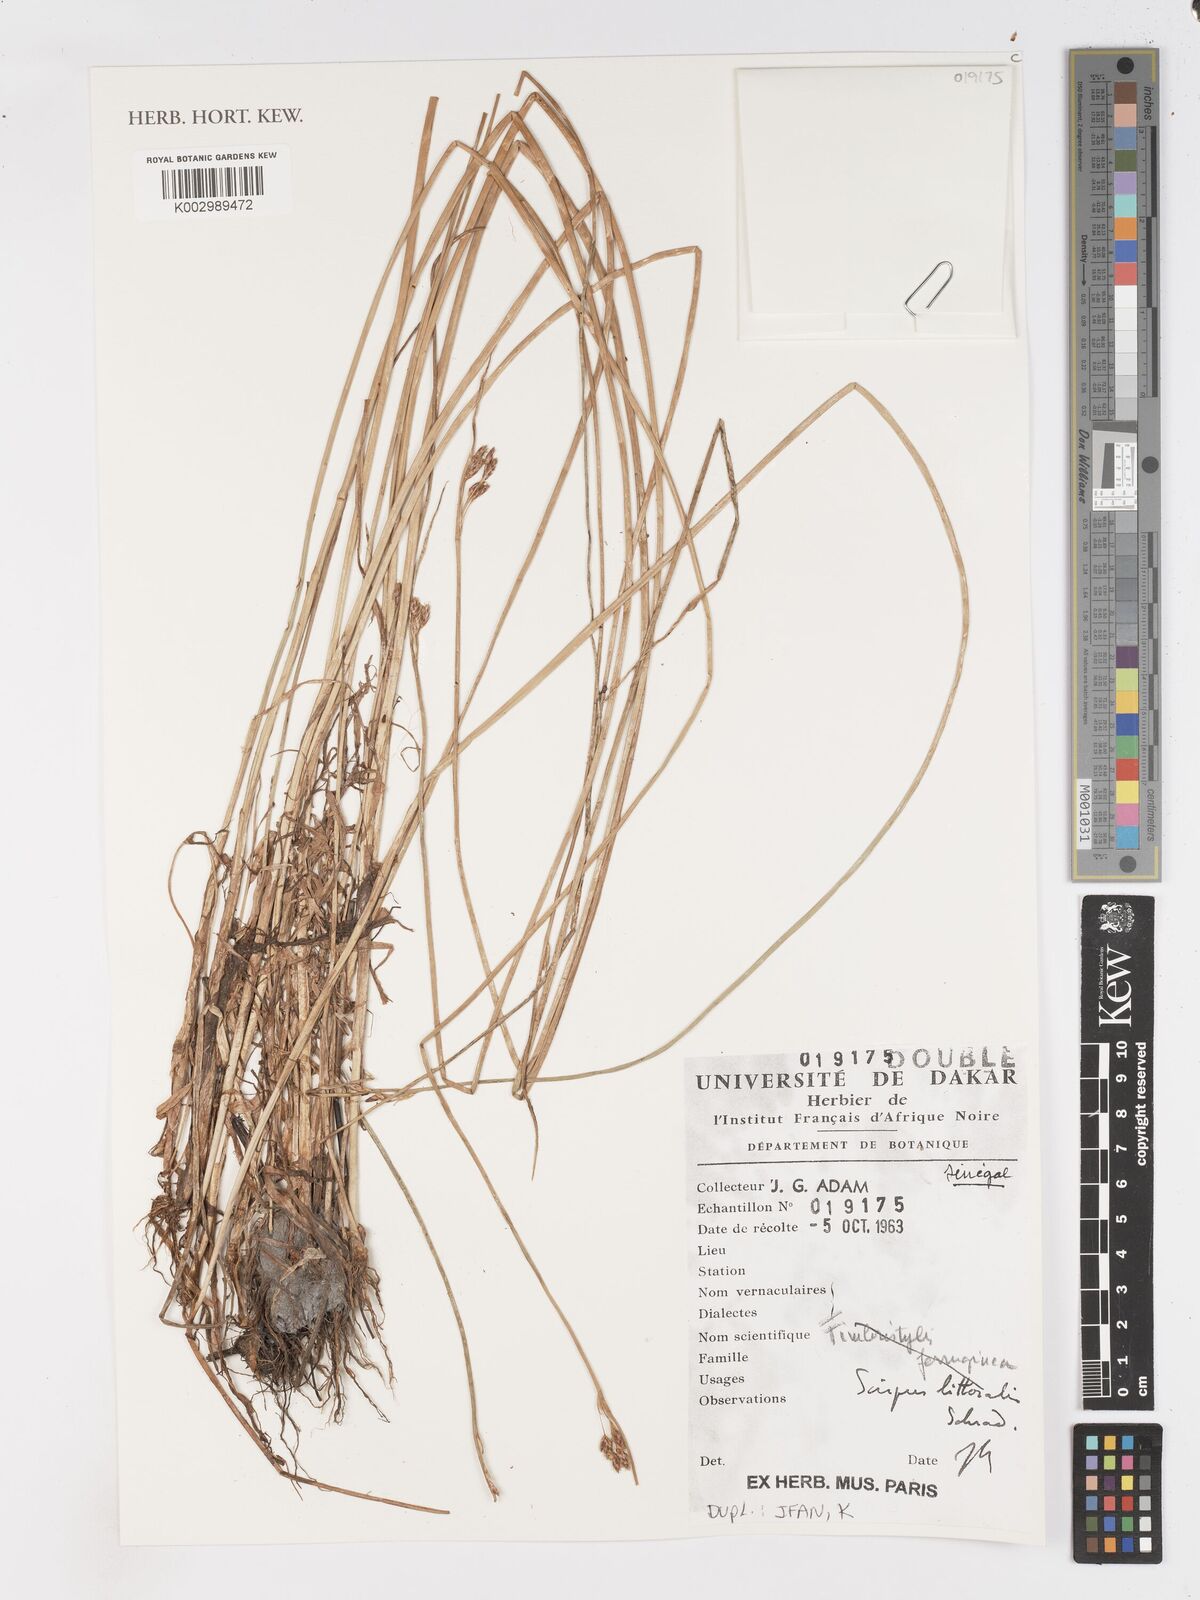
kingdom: Plantae
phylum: Tracheophyta
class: Liliopsida
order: Poales
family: Cyperaceae
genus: Schoenoplectus
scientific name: Schoenoplectus litoralis
